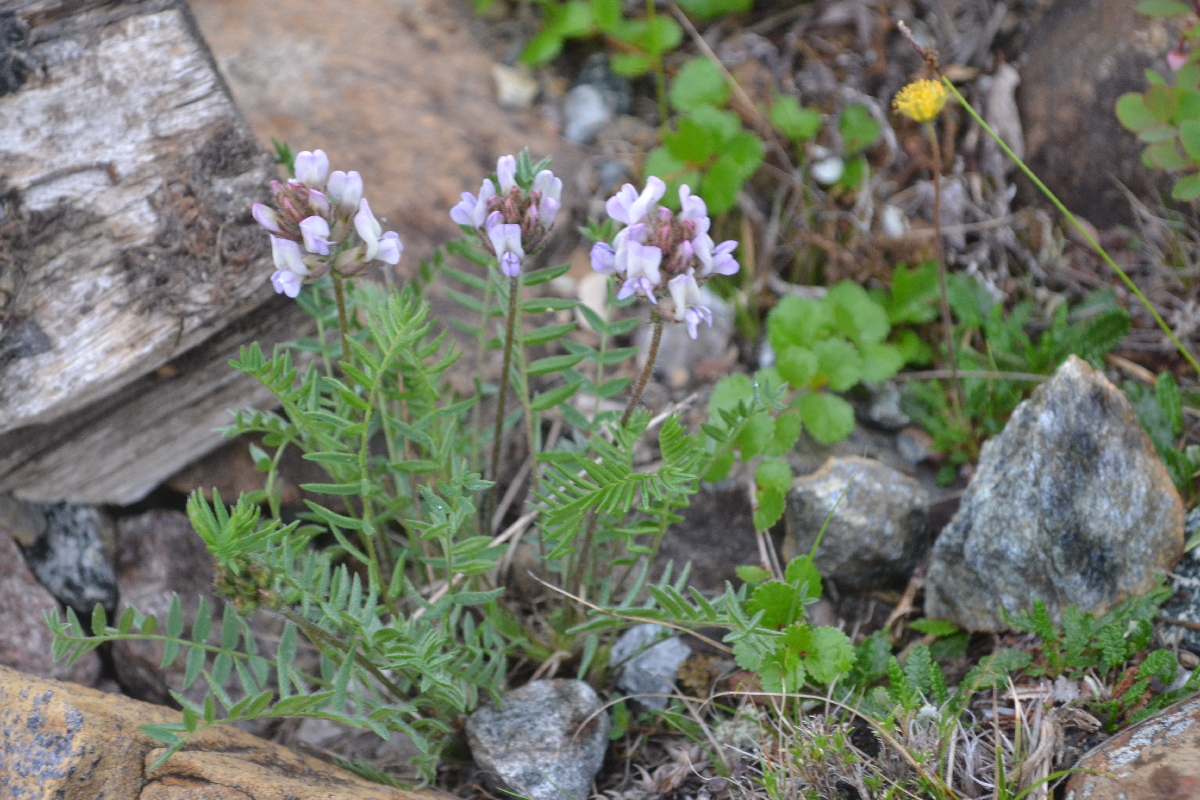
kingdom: Plantae
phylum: Tracheophyta
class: Magnoliopsida
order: Fabales
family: Fabaceae
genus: Oxytropis
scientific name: Oxytropis sordida
